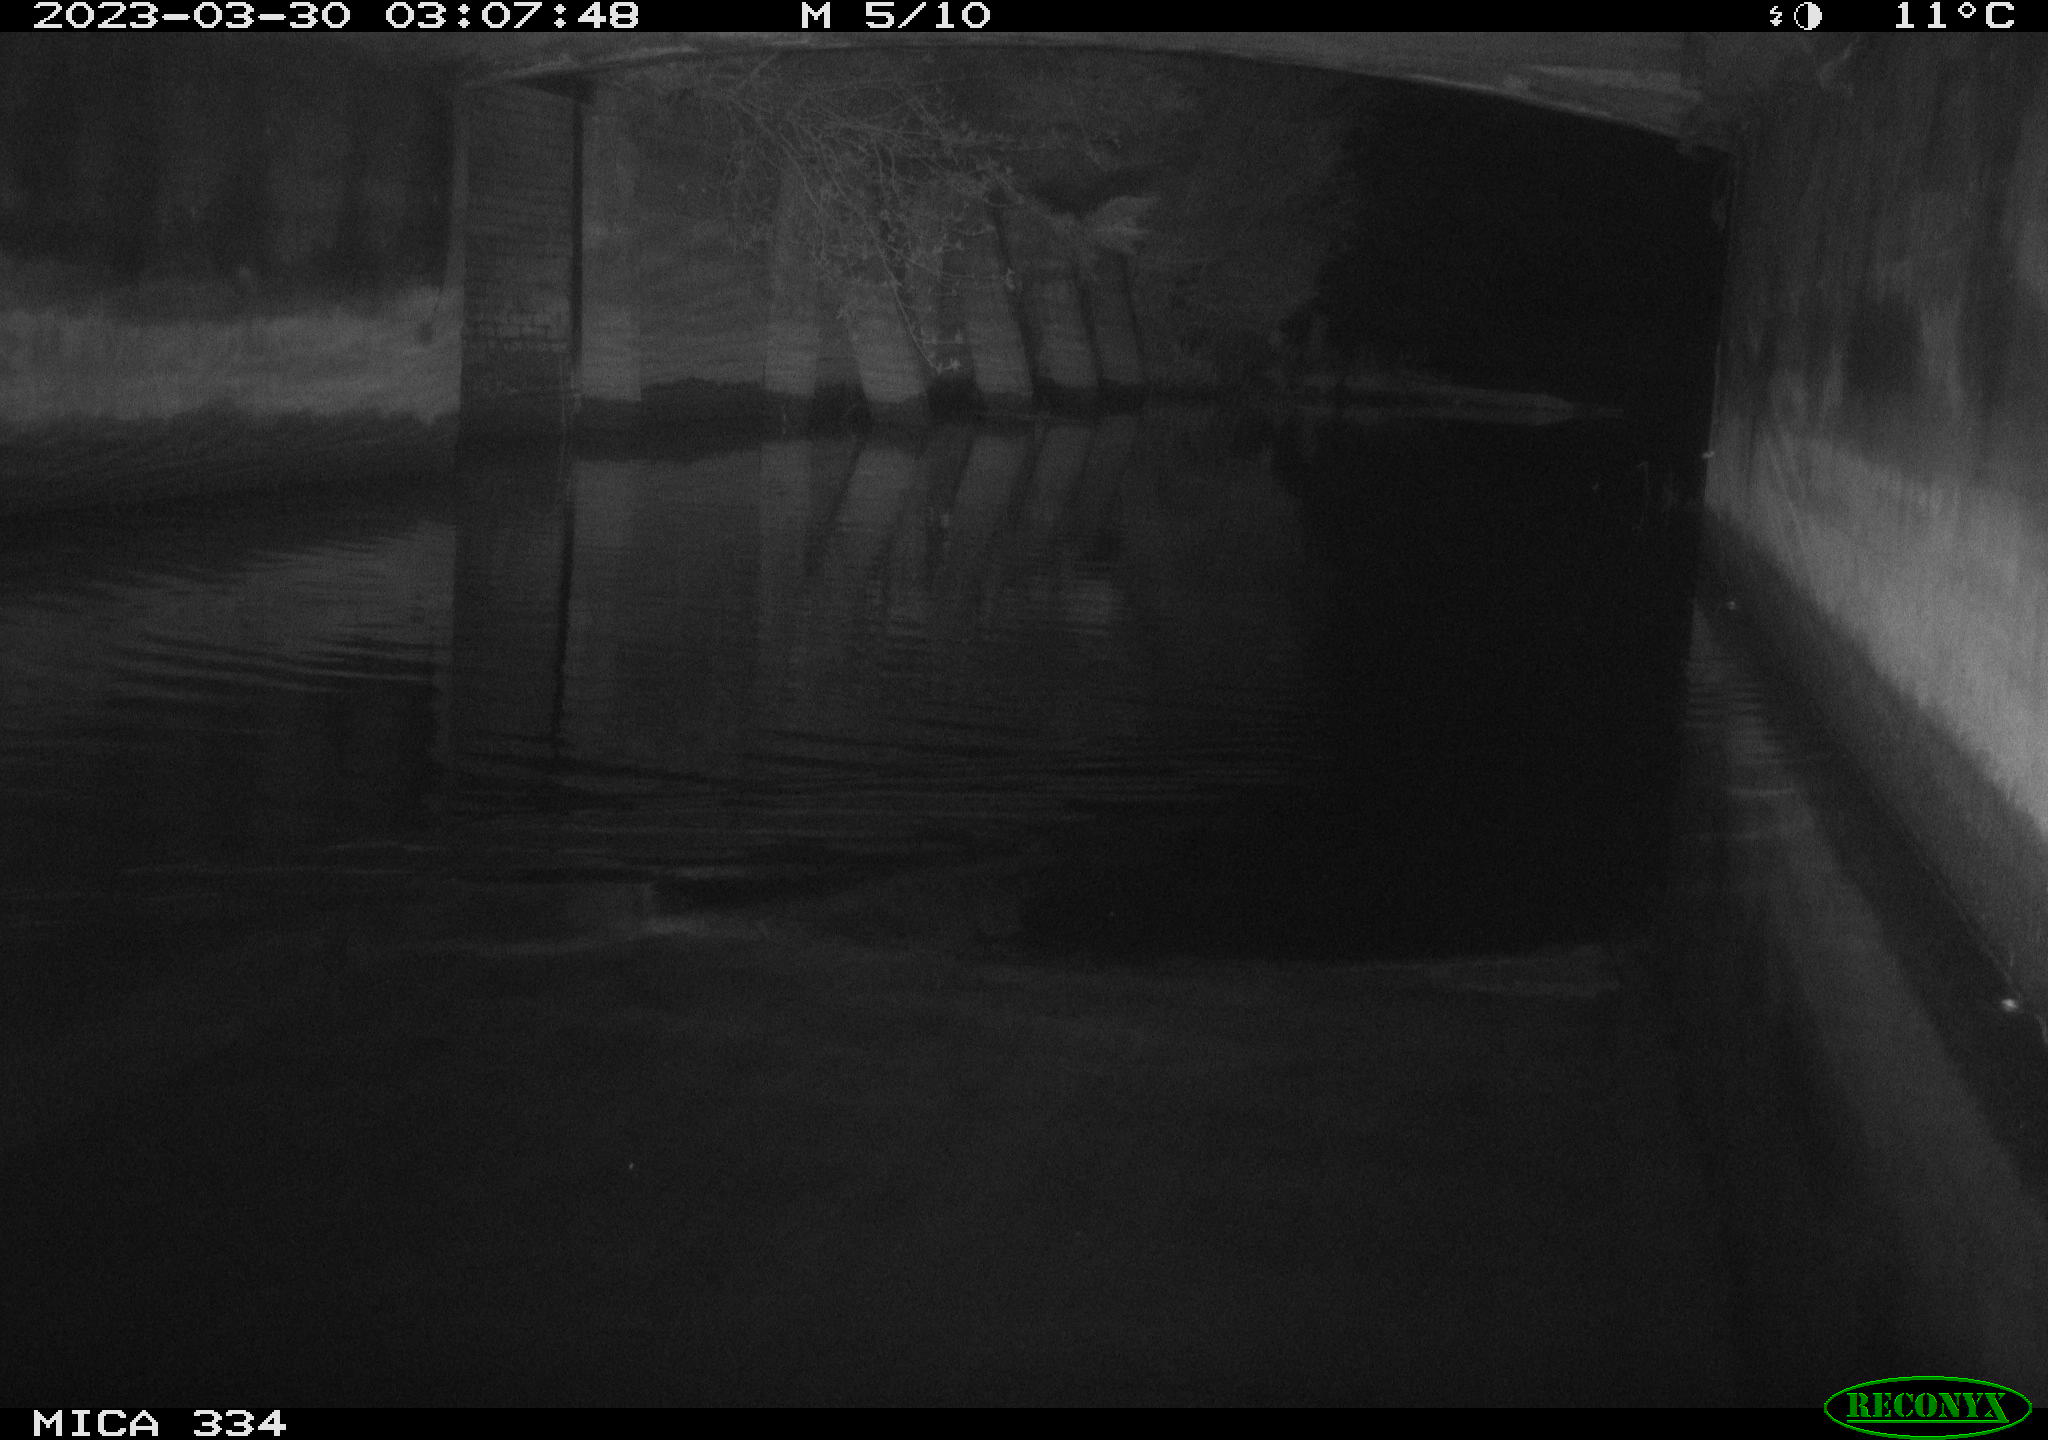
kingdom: Animalia
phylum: Chordata
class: Aves
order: Anseriformes
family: Anatidae
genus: Anas
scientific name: Anas
